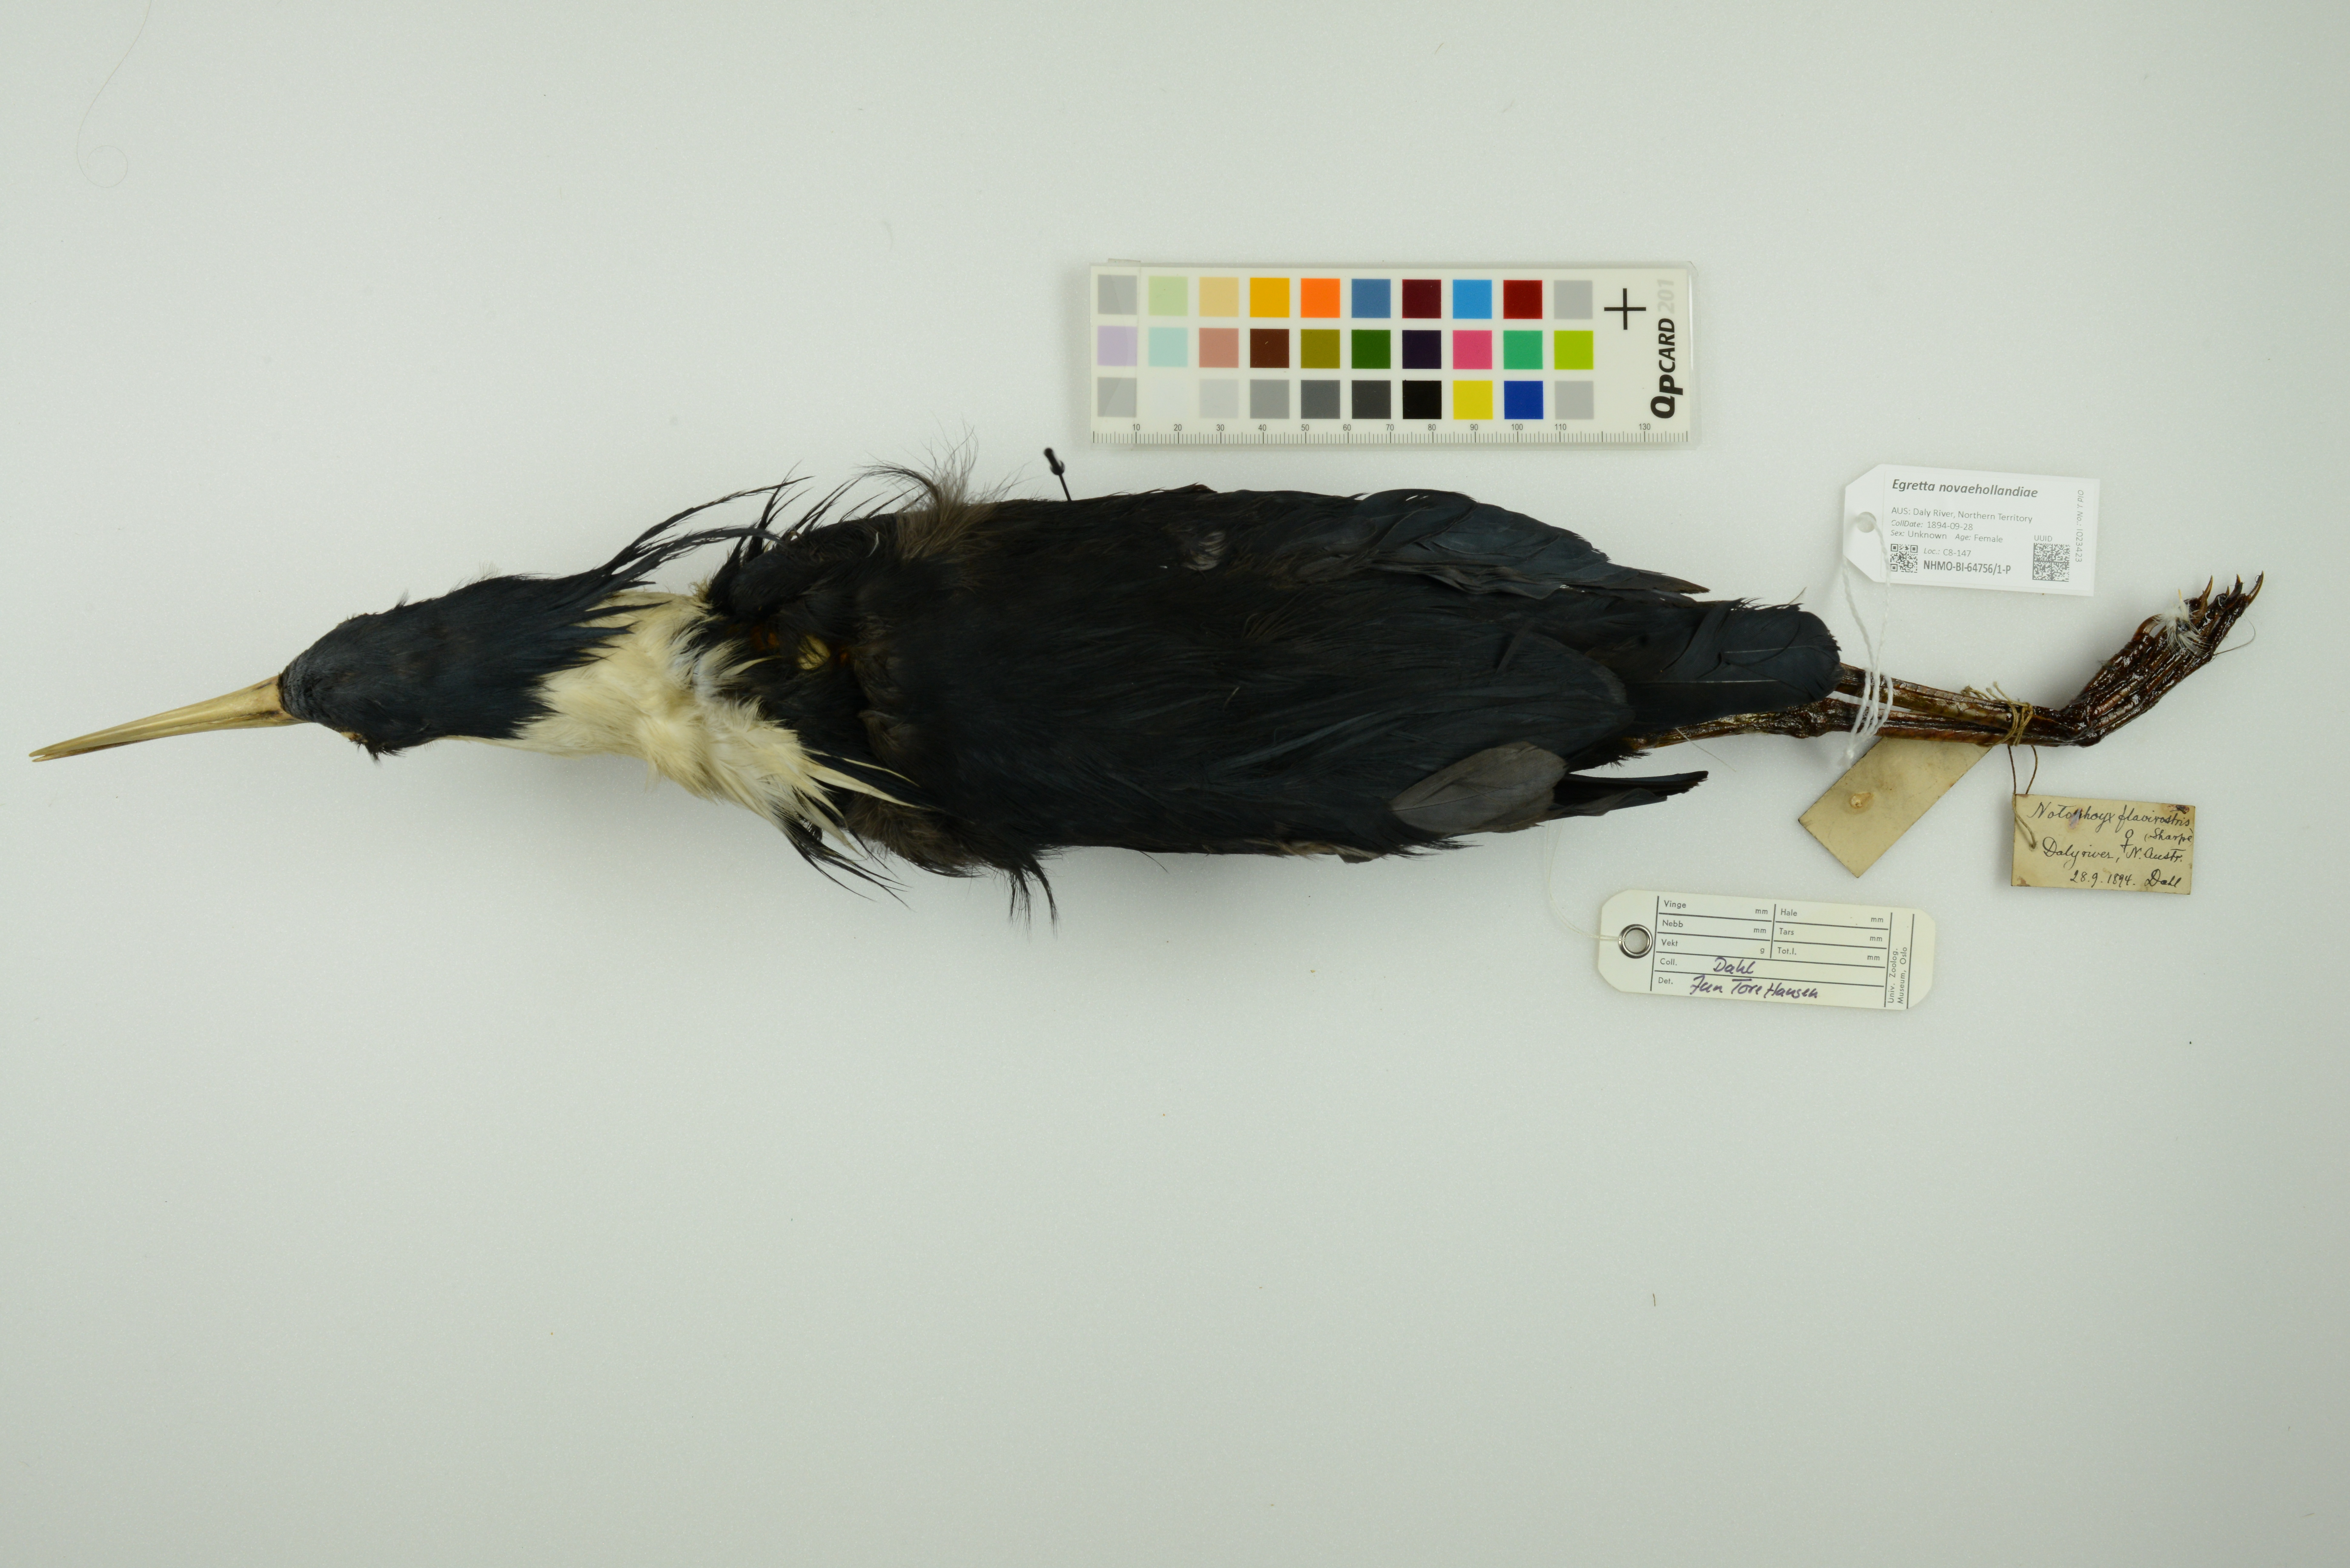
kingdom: Animalia
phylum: Chordata
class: Aves
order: Pelecaniformes
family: Ardeidae
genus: Egretta
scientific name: Egretta novaehollandiae
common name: White-faced heron
